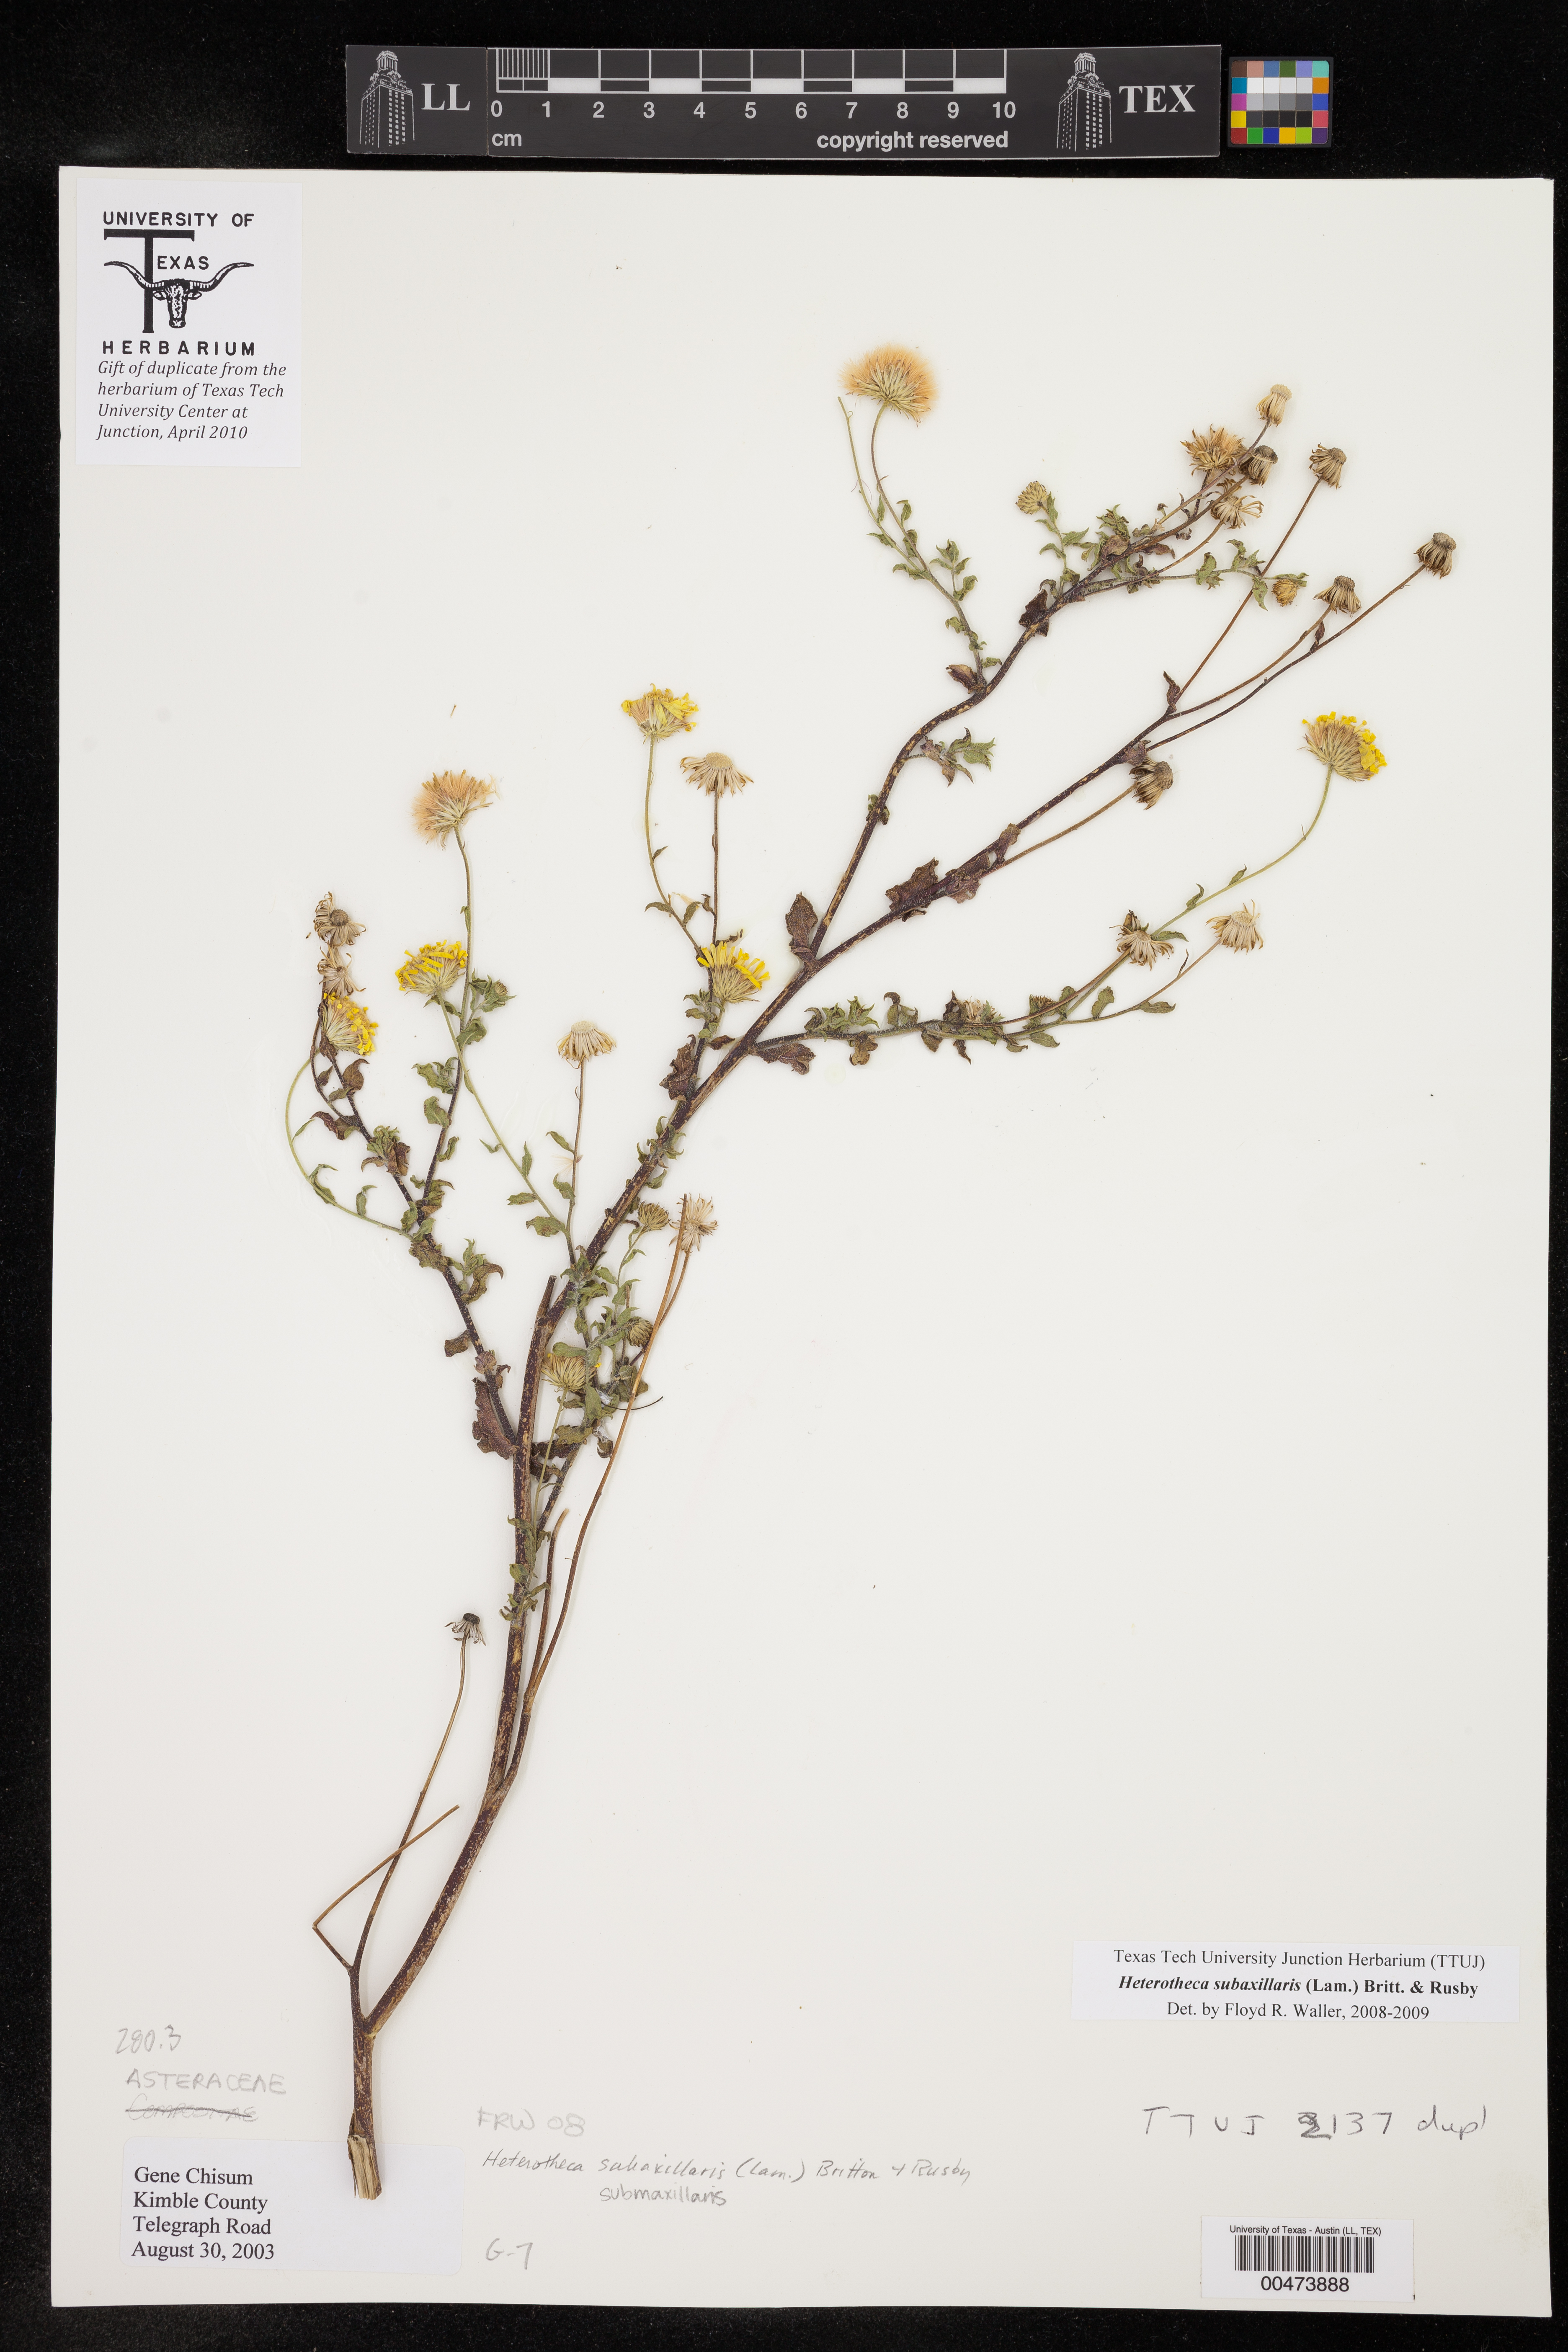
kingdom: Plantae
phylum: Tracheophyta
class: Magnoliopsida
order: Asterales
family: Asteraceae
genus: Heterotheca
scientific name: Heterotheca subaxillaris
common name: Camphorweed
